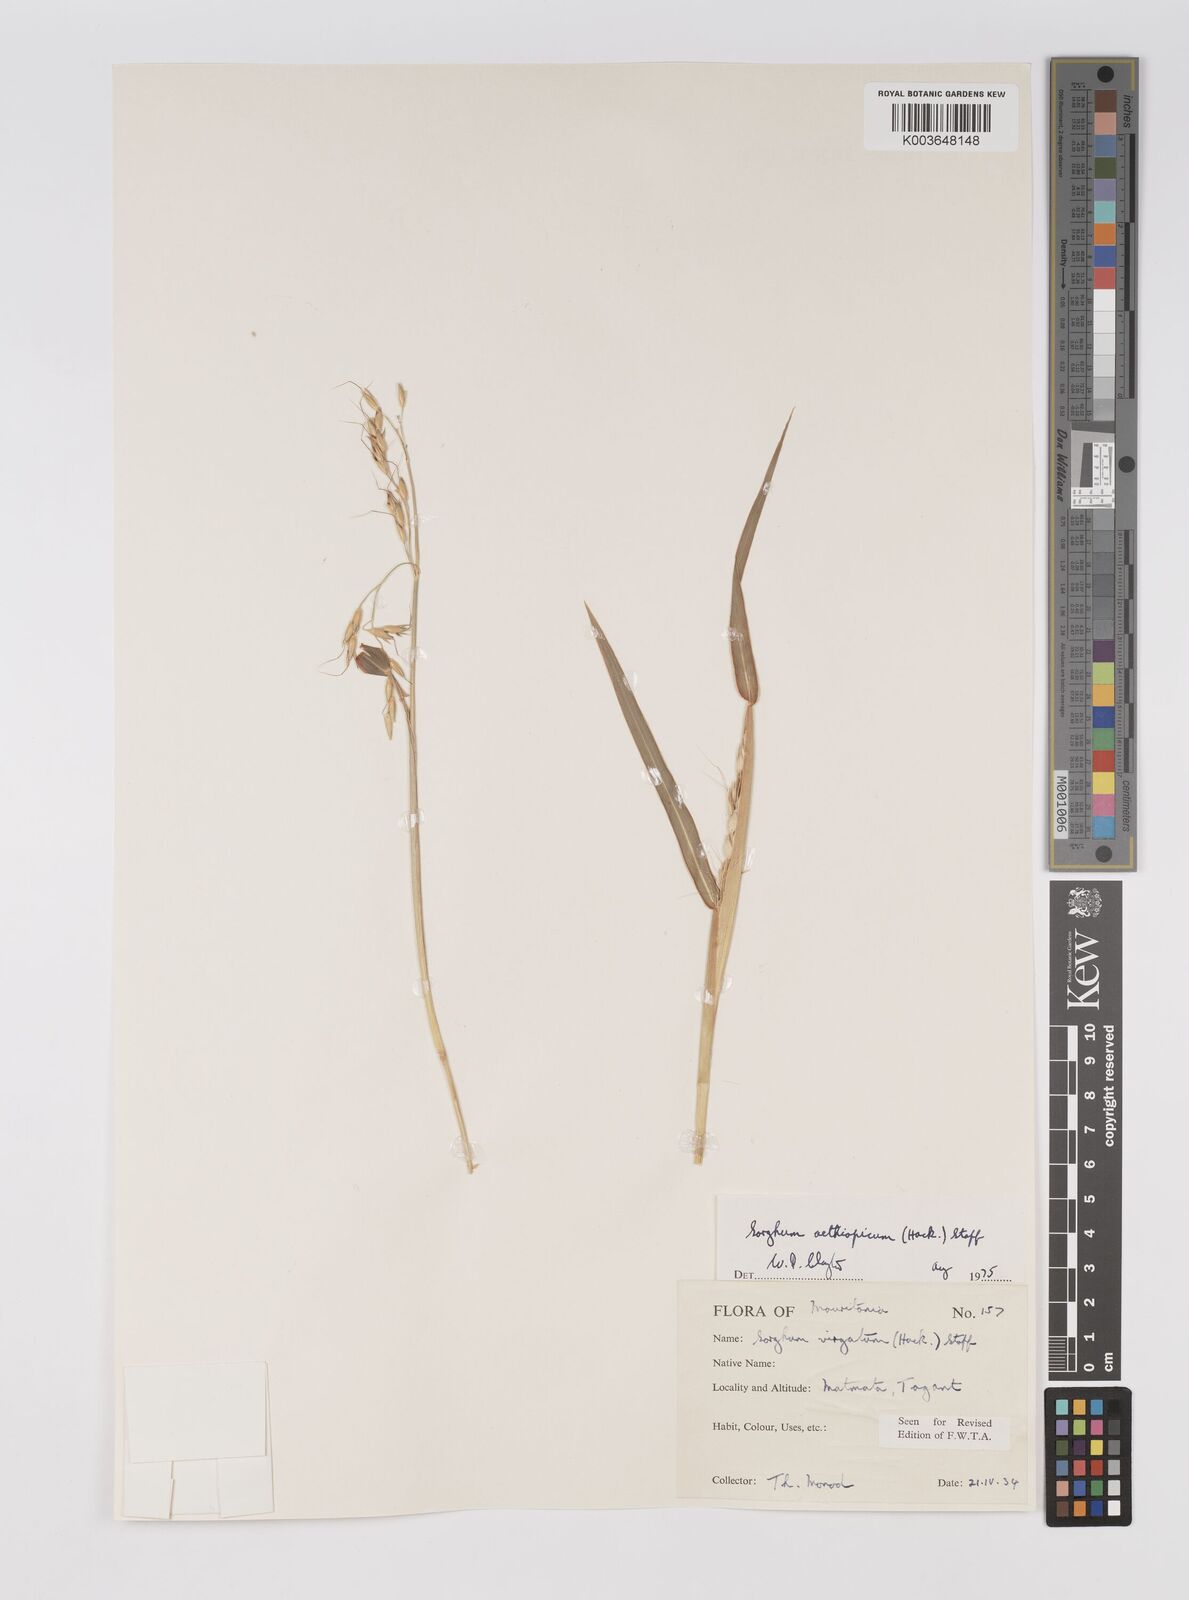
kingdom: Plantae
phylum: Tracheophyta
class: Liliopsida
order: Poales
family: Poaceae
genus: Sorghum
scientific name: Sorghum arundinaceum
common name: Sorghum
